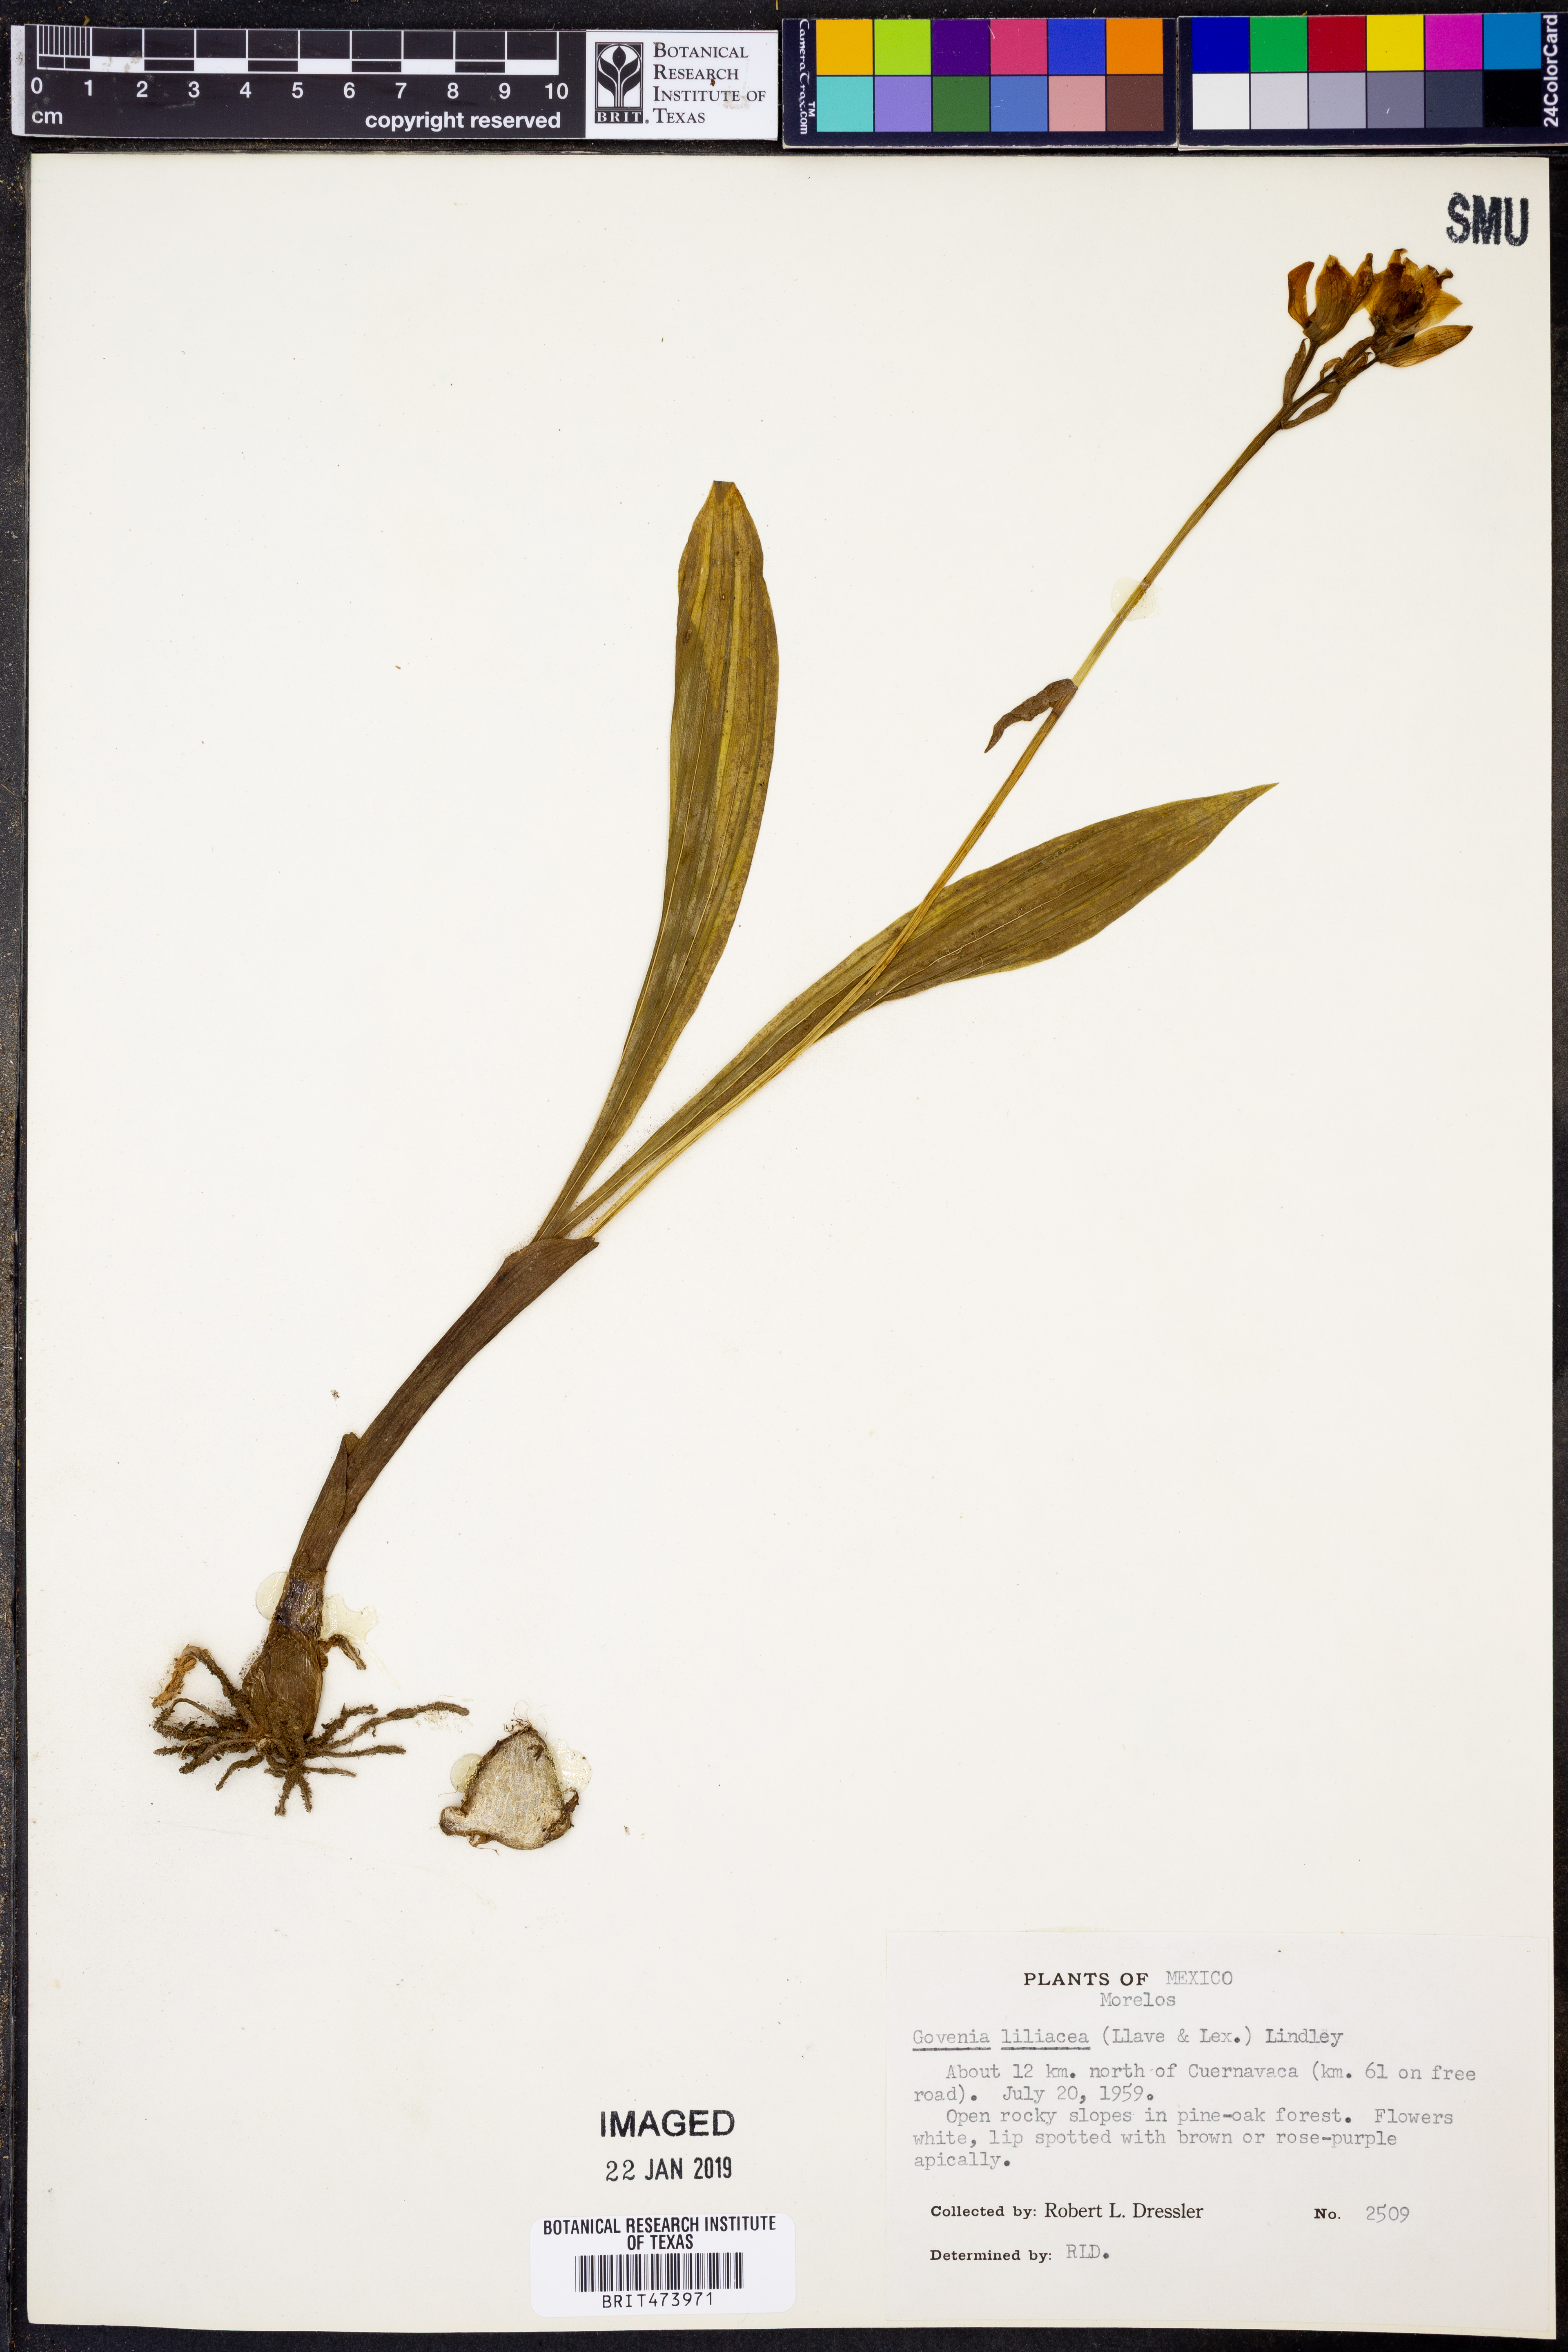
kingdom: Plantae
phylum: Tracheophyta
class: Liliopsida
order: Asparagales
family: Orchidaceae
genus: Govenia
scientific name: Govenia liliacea
